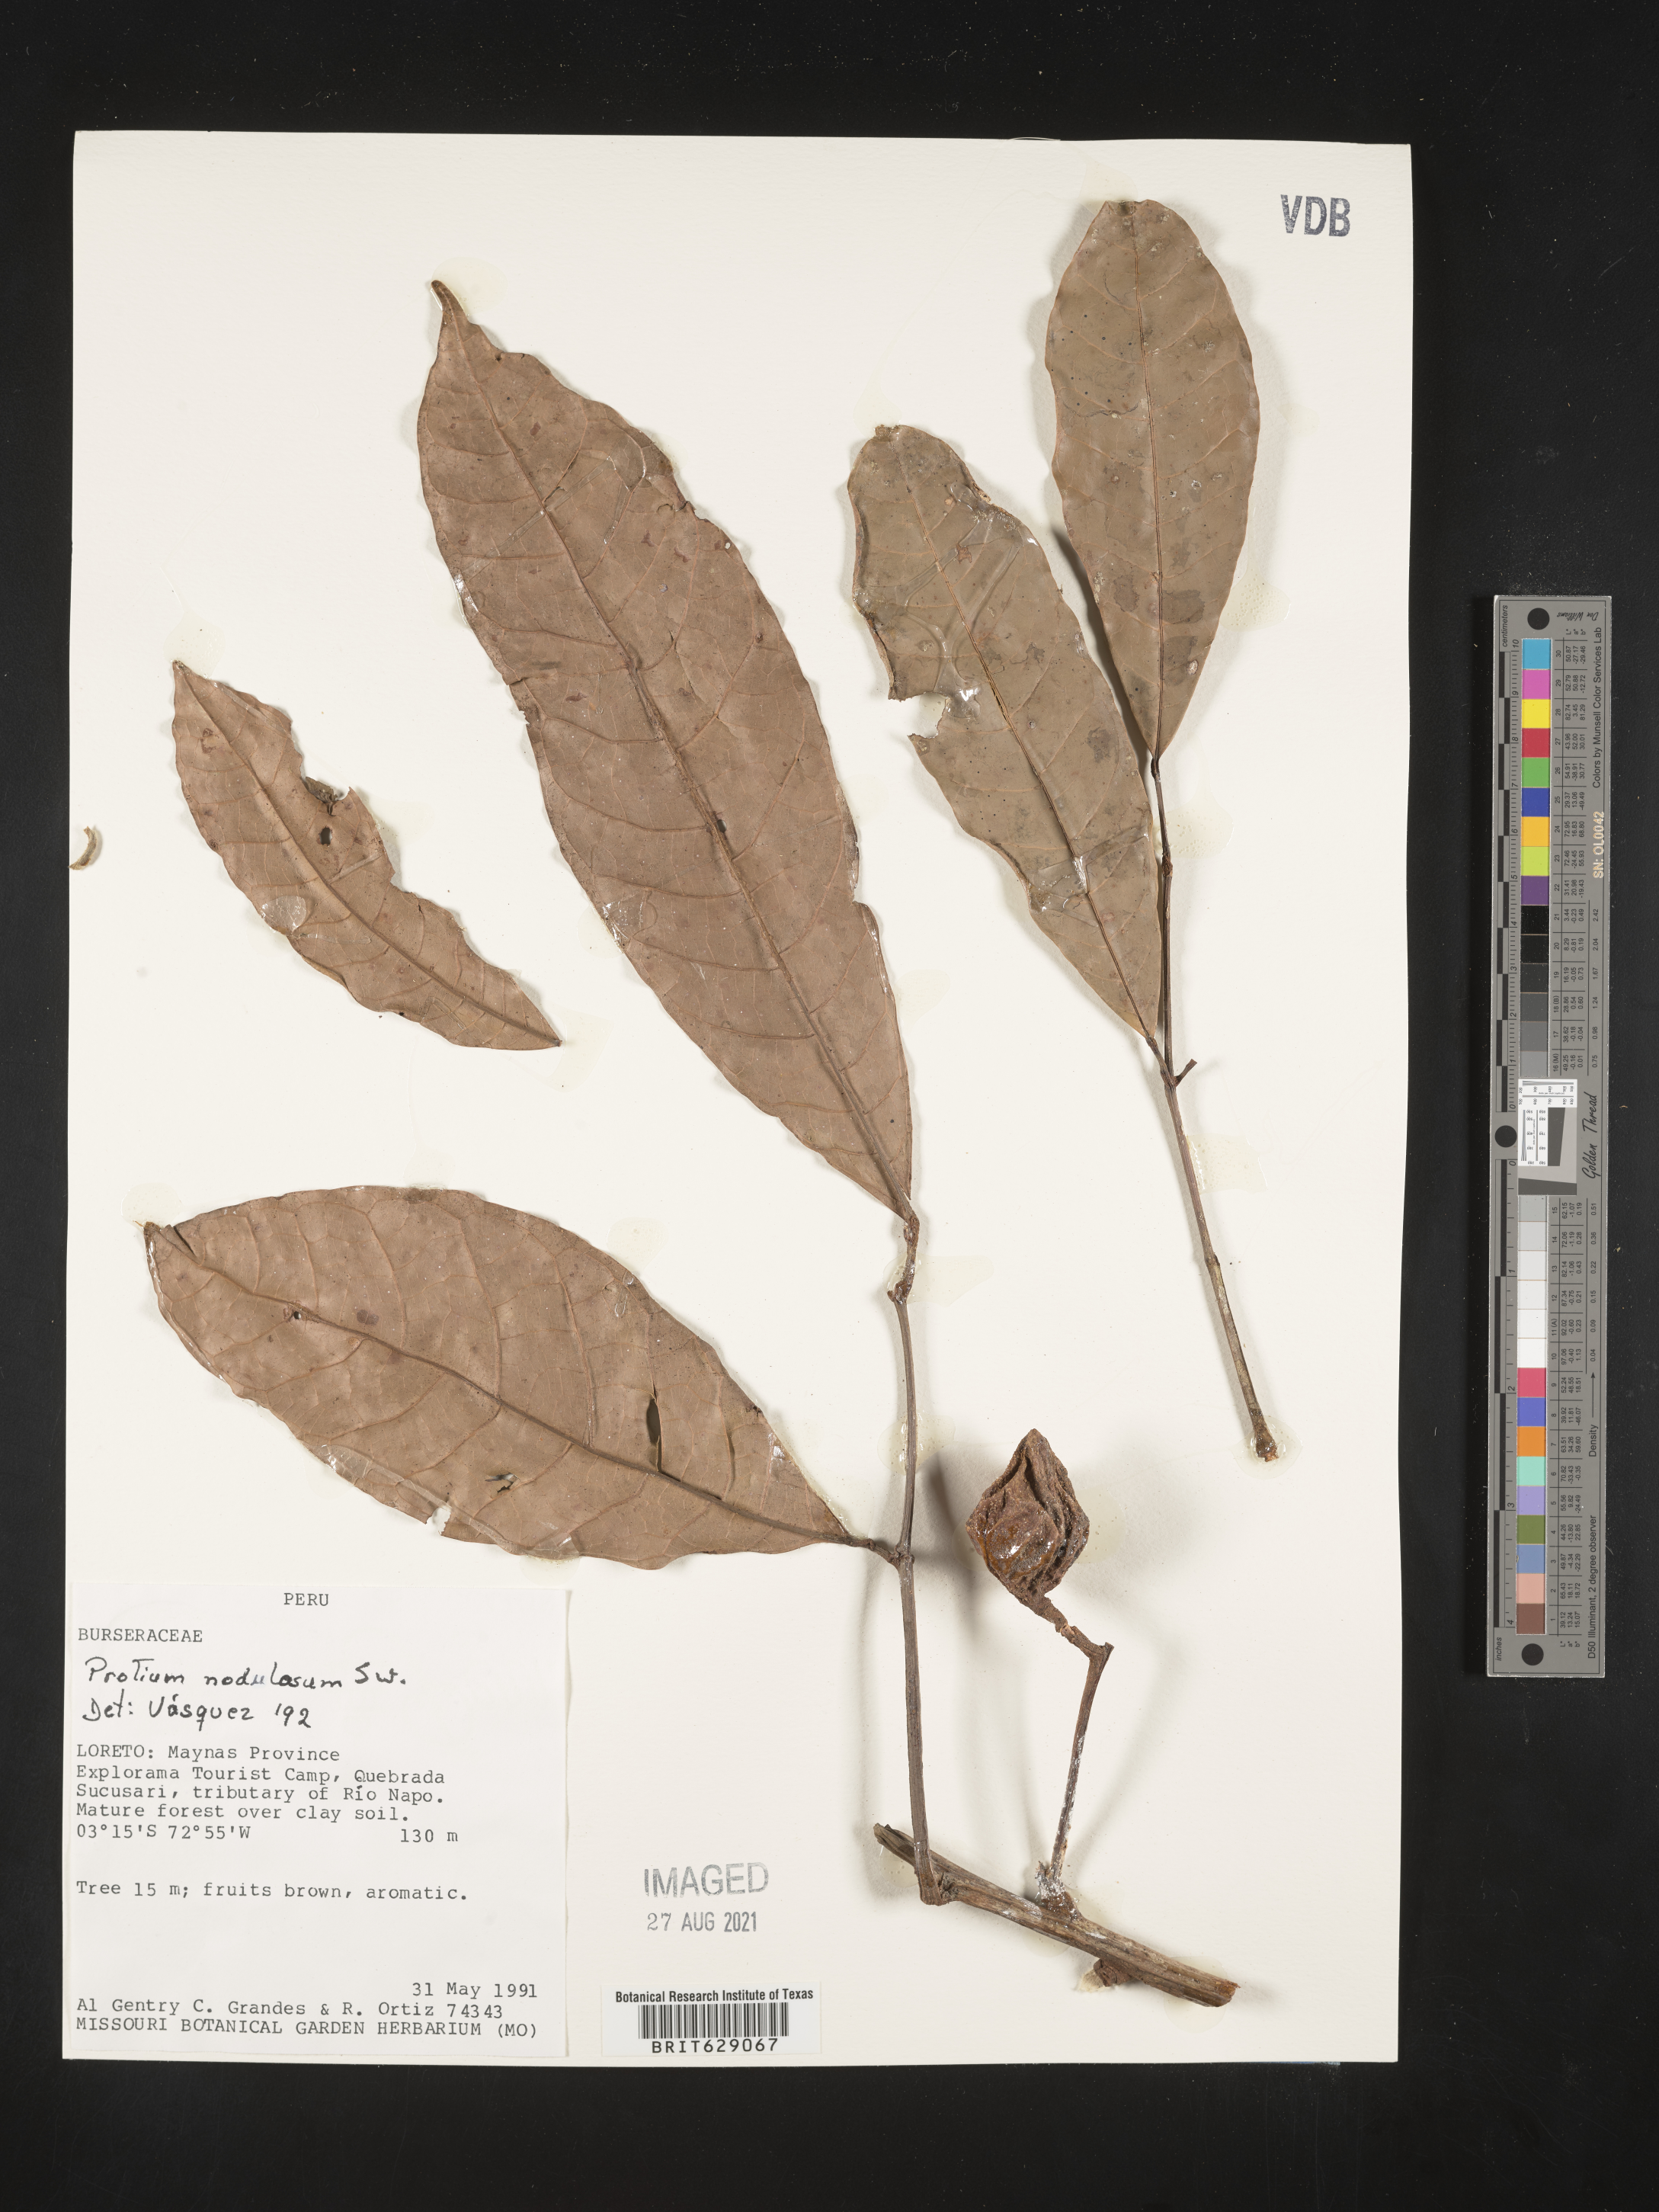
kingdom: Plantae
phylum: Tracheophyta
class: Magnoliopsida
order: Sapindales
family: Burseraceae
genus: Protium
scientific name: Protium nodulosum
